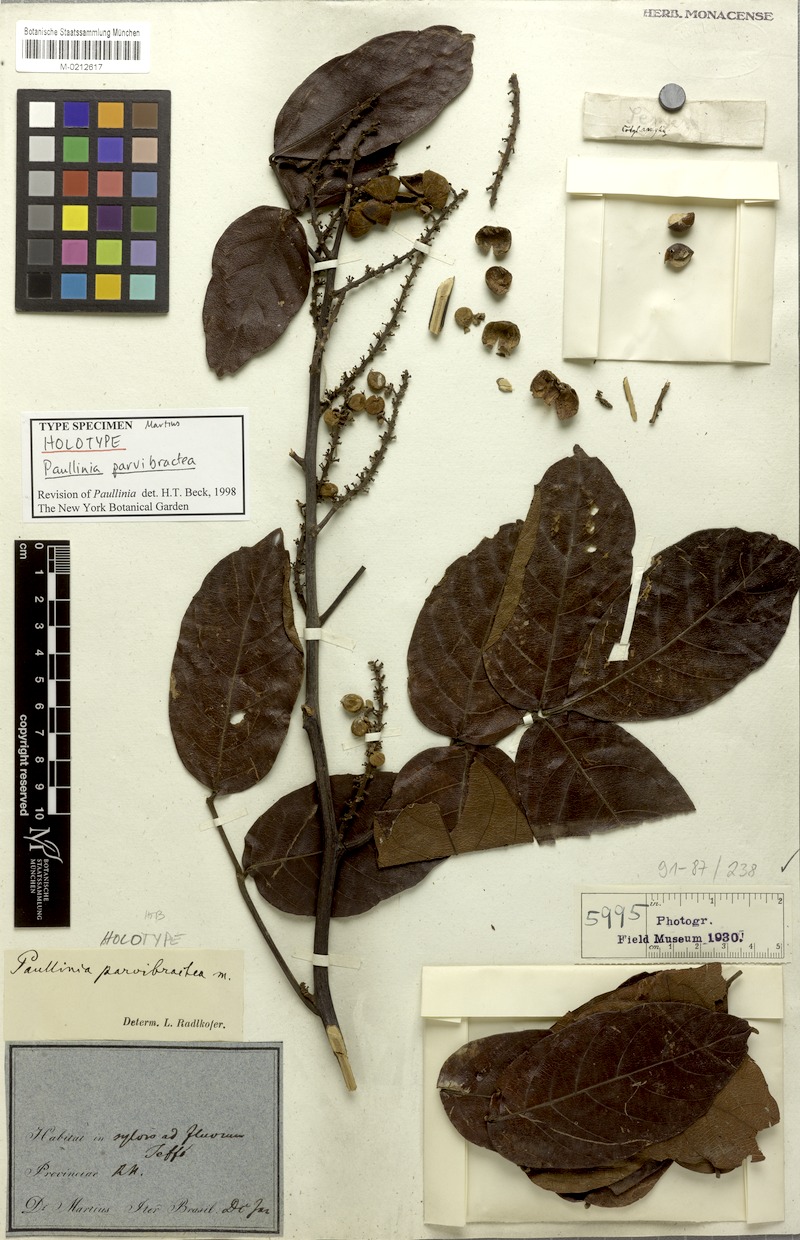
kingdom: Plantae
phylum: Tracheophyta
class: Magnoliopsida
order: Sapindales
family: Sapindaceae
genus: Paullinia
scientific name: Paullinia parvibractea
